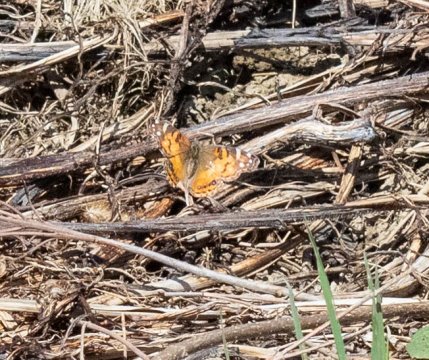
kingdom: Animalia
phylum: Arthropoda
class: Insecta
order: Lepidoptera
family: Nymphalidae
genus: Vanessa
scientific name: Vanessa virginiensis
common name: American Lady
